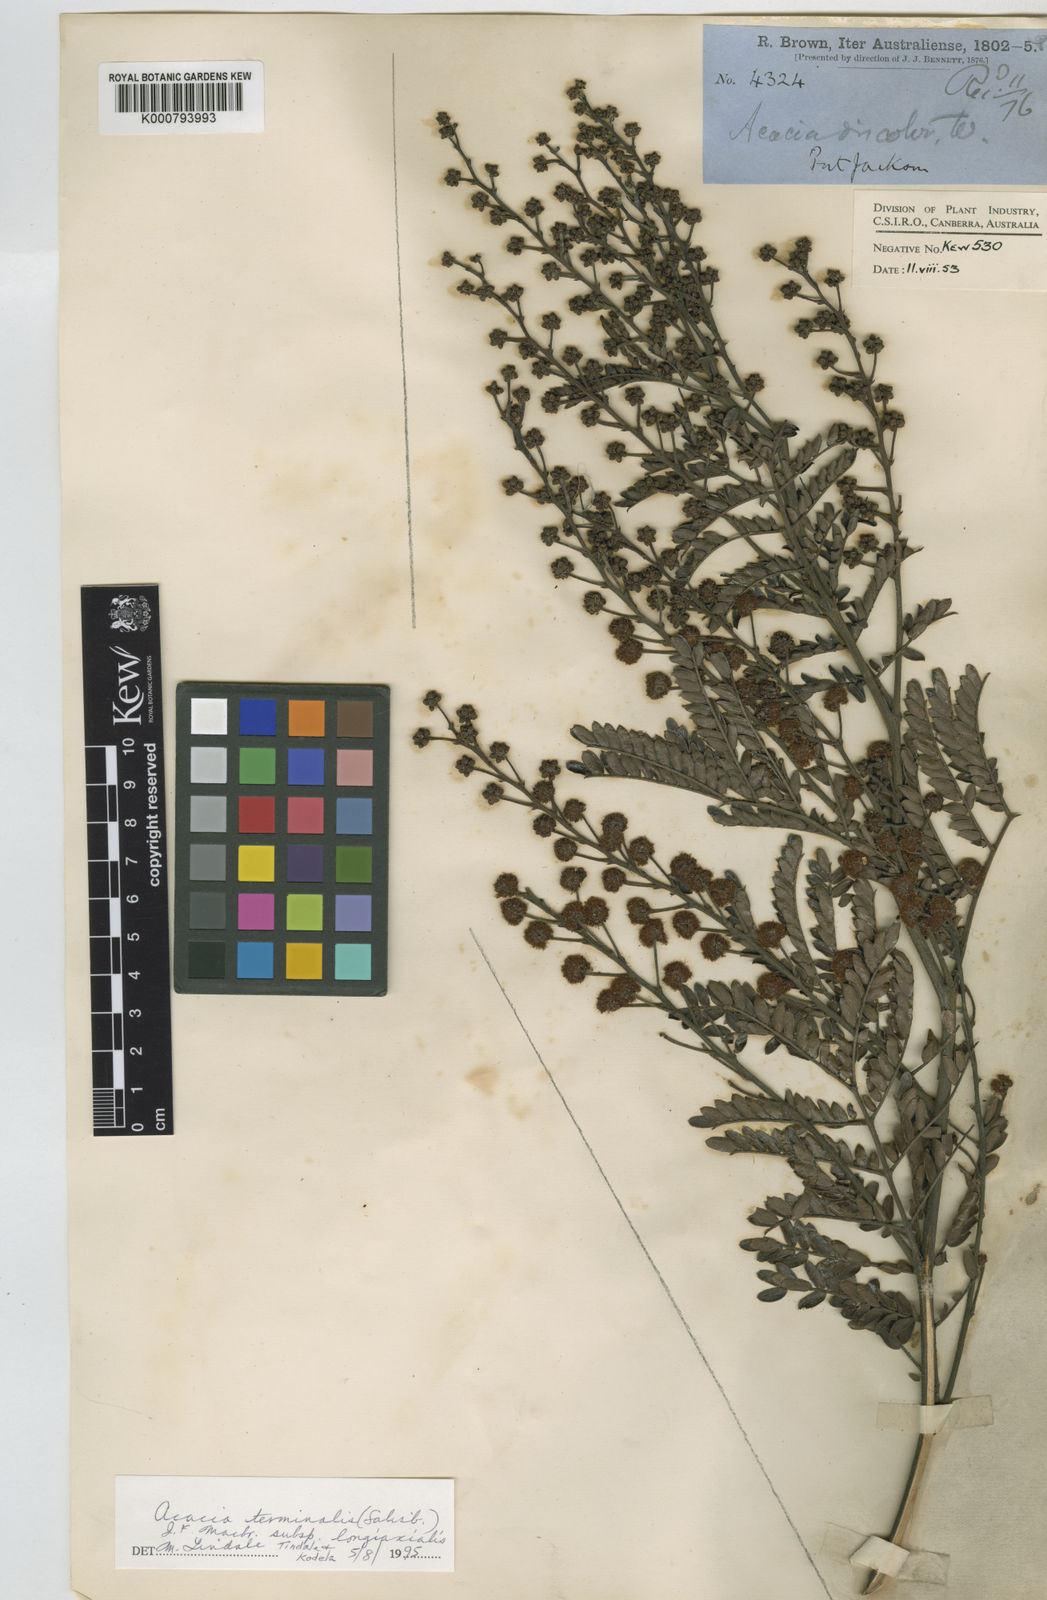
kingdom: Plantae
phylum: Tracheophyta
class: Magnoliopsida
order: Fabales
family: Fabaceae
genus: Acacia
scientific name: Acacia terminalis
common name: Cedar wattle
